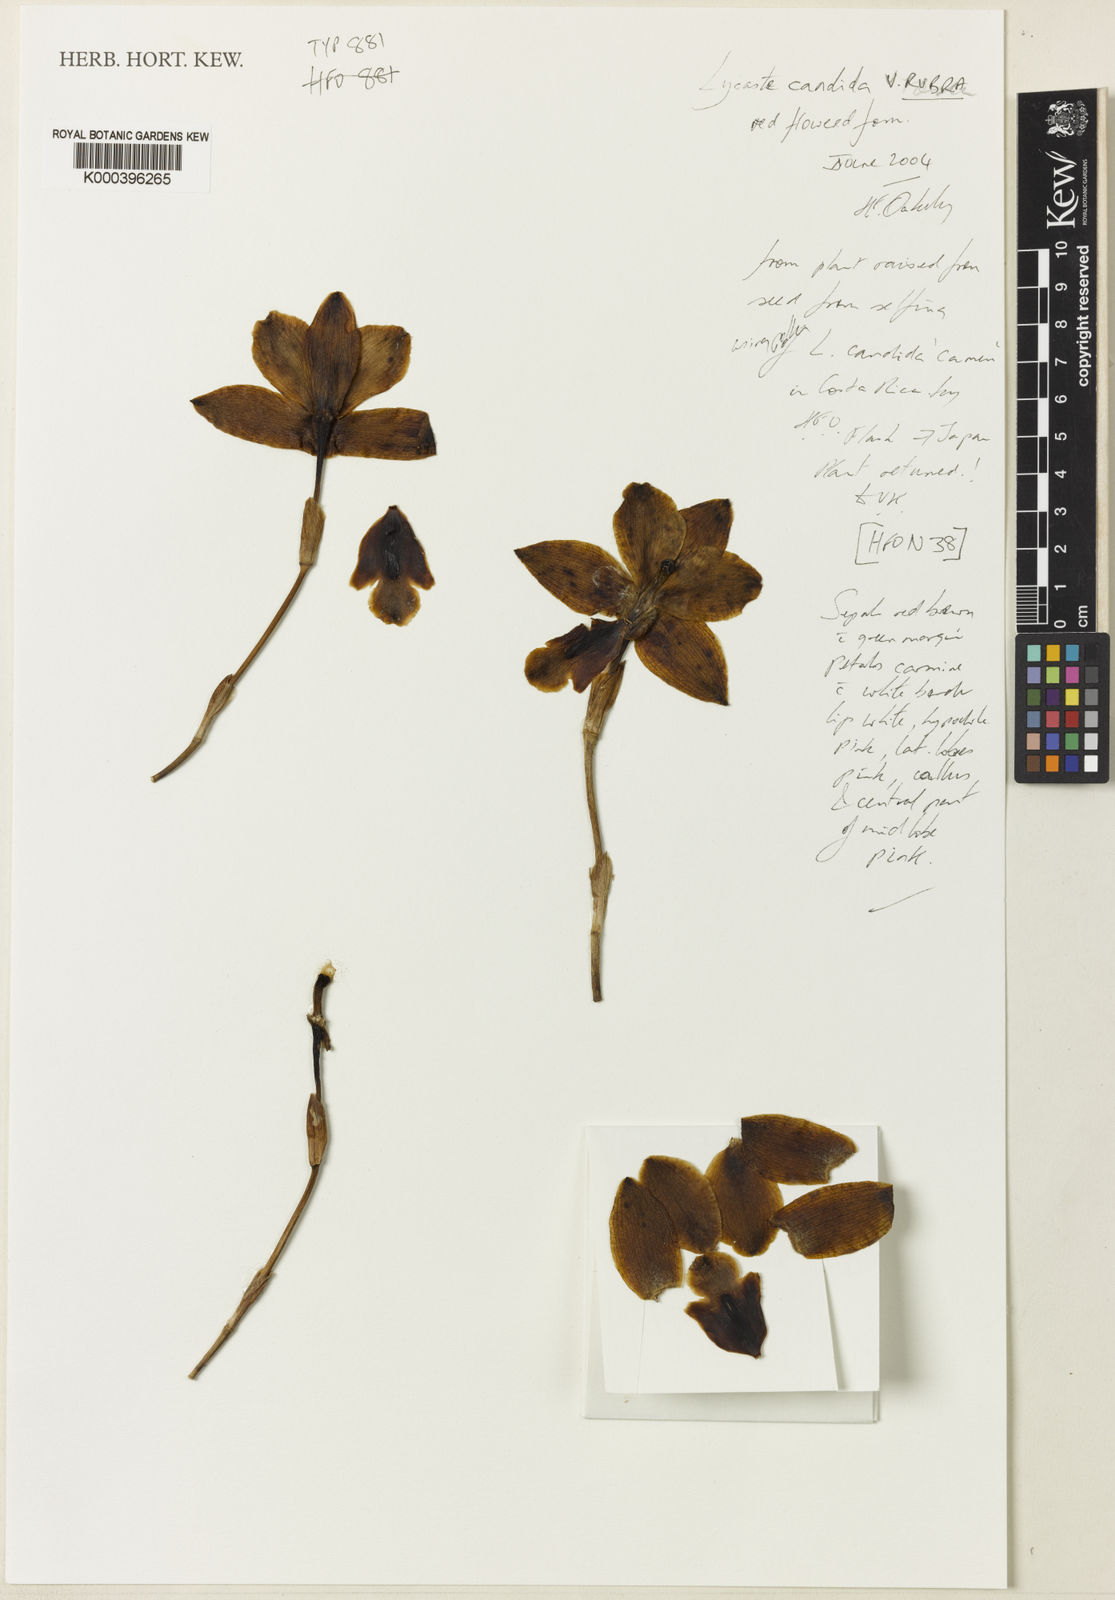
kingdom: Plantae
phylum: Tracheophyta
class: Liliopsida
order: Asparagales
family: Orchidaceae
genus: Lycaste
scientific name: Lycaste brevispatha
